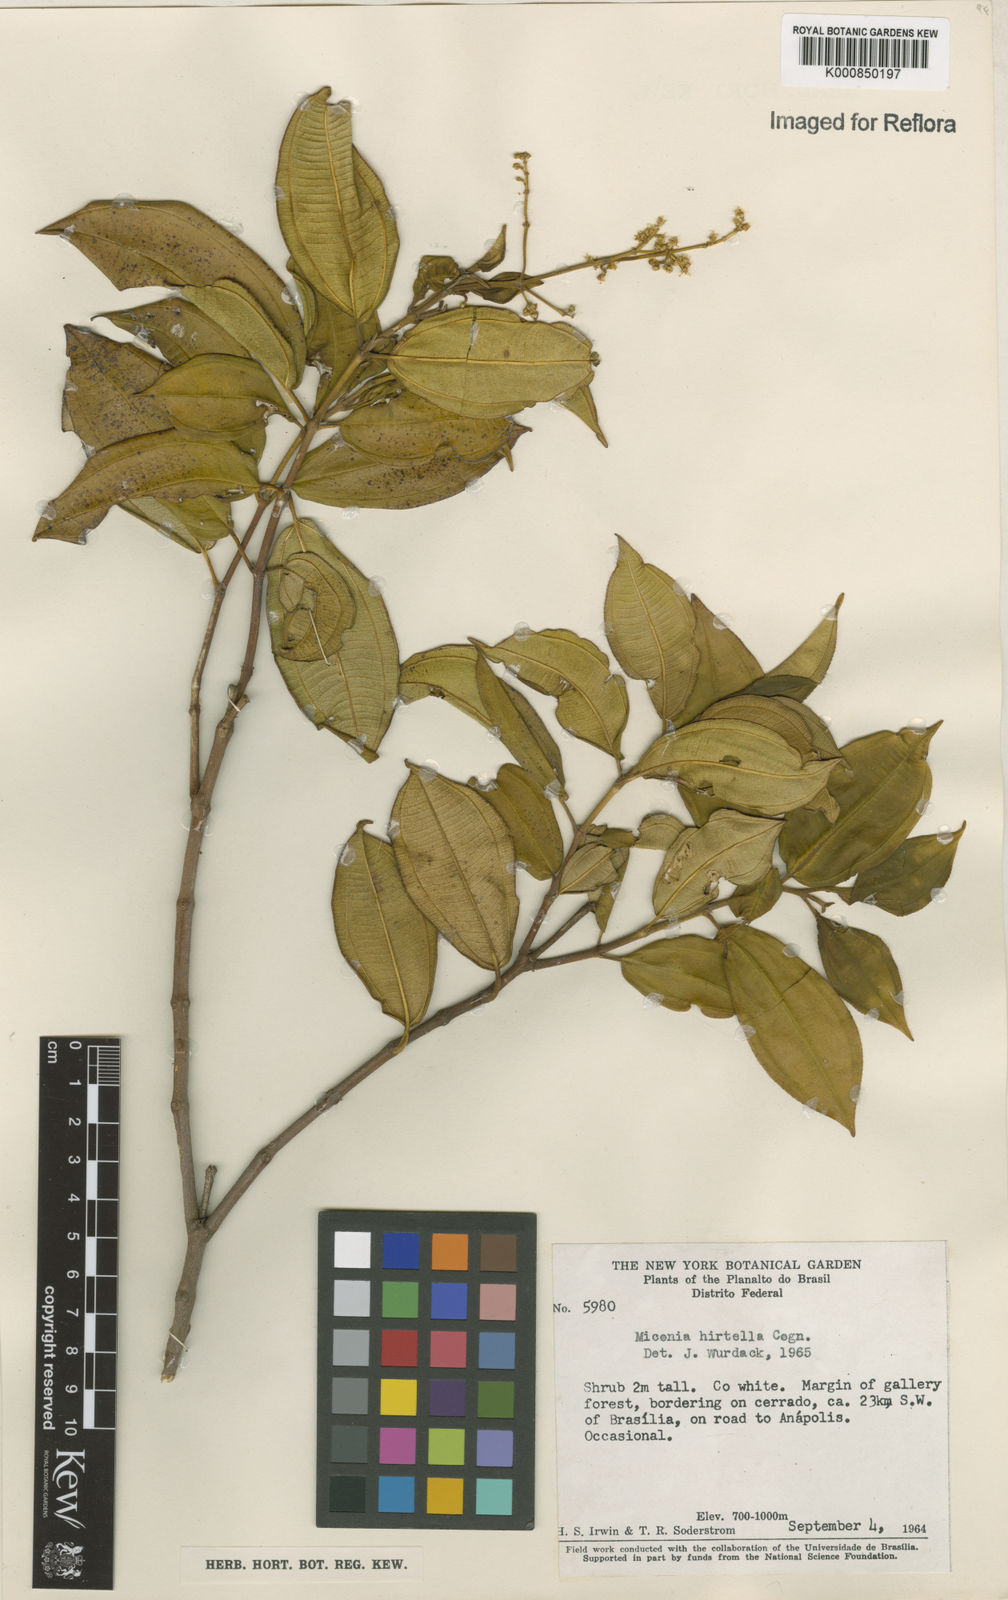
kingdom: Plantae
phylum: Tracheophyta
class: Magnoliopsida
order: Myrtales
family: Melastomataceae
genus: Miconia
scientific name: Miconia hirta
